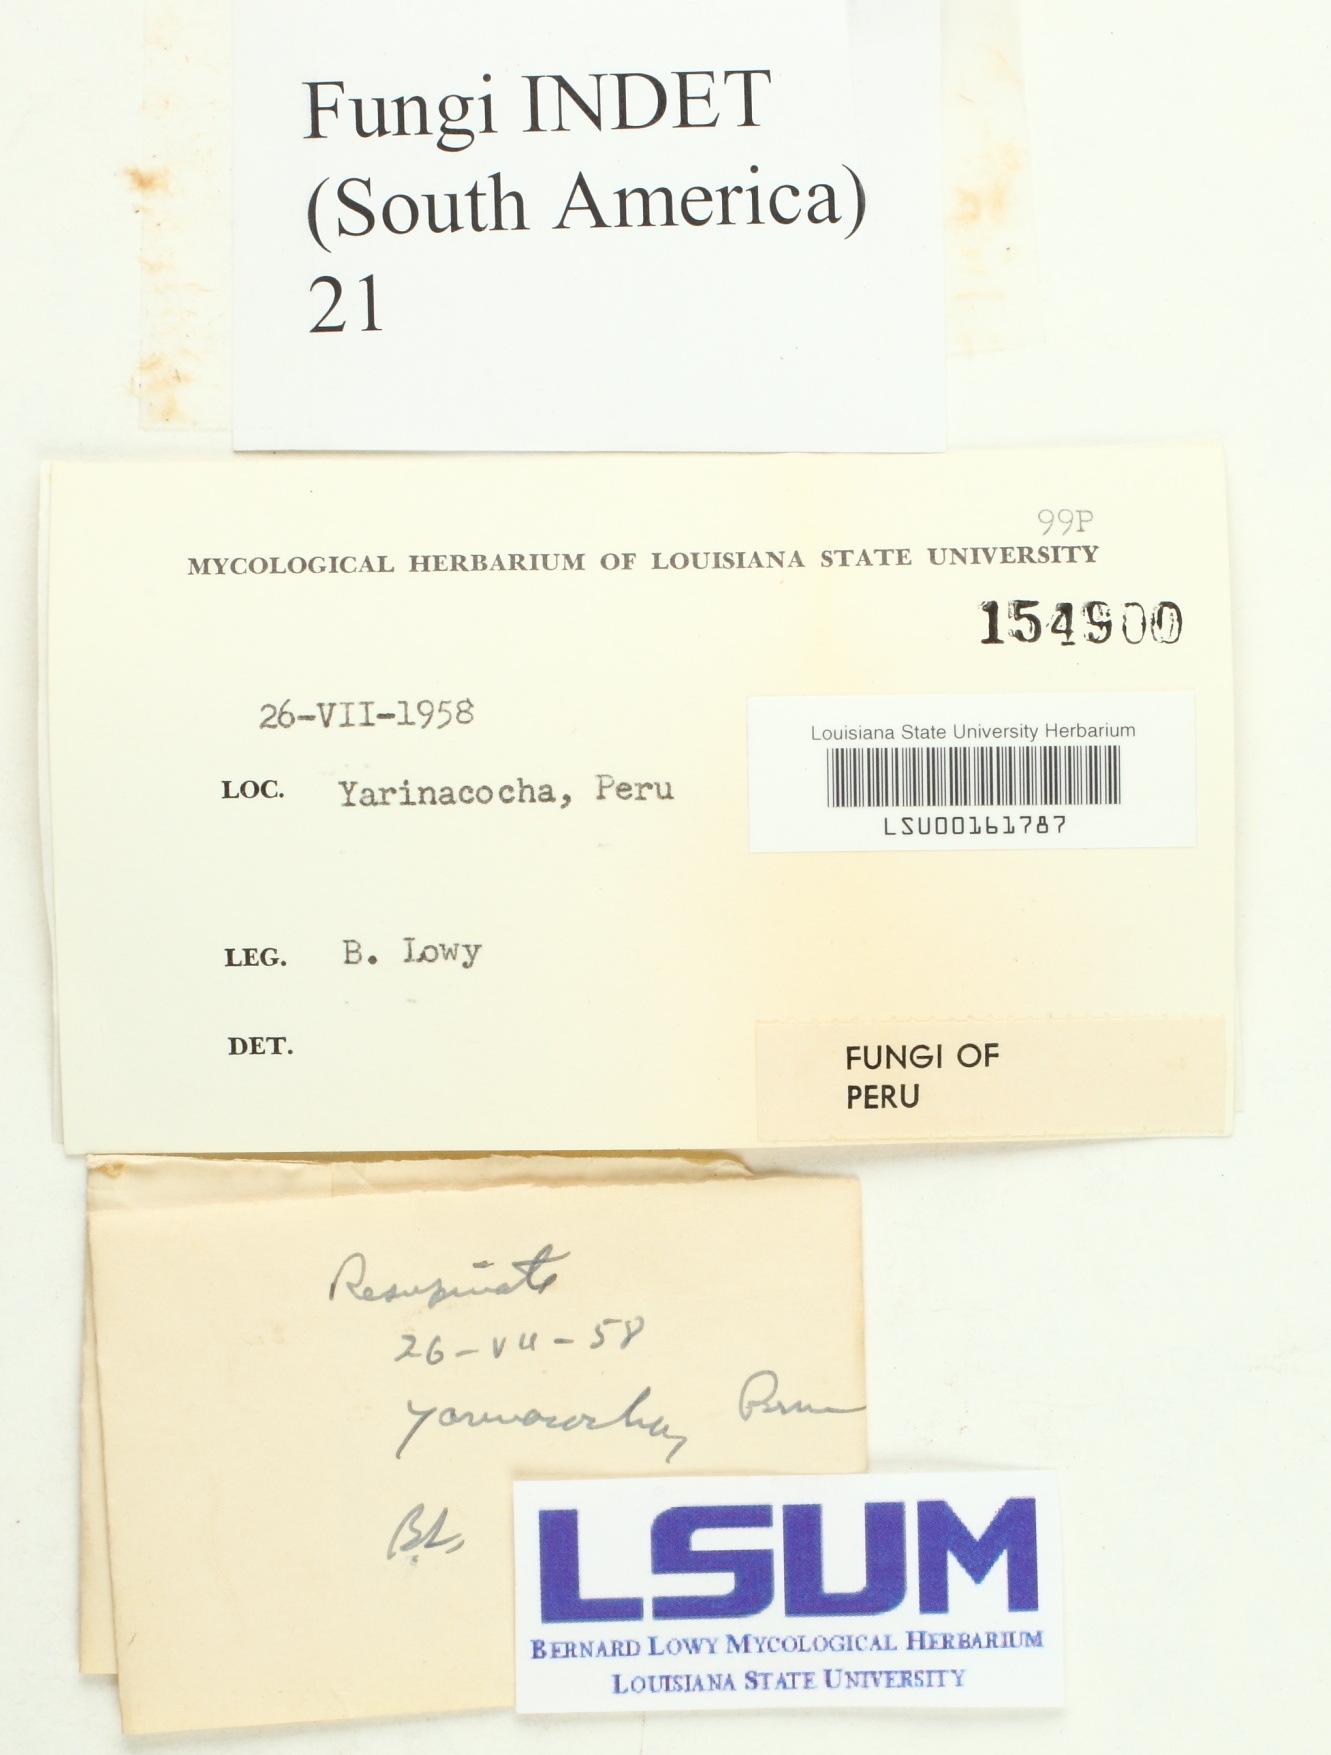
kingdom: Fungi
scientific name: Fungi
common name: Fungi
